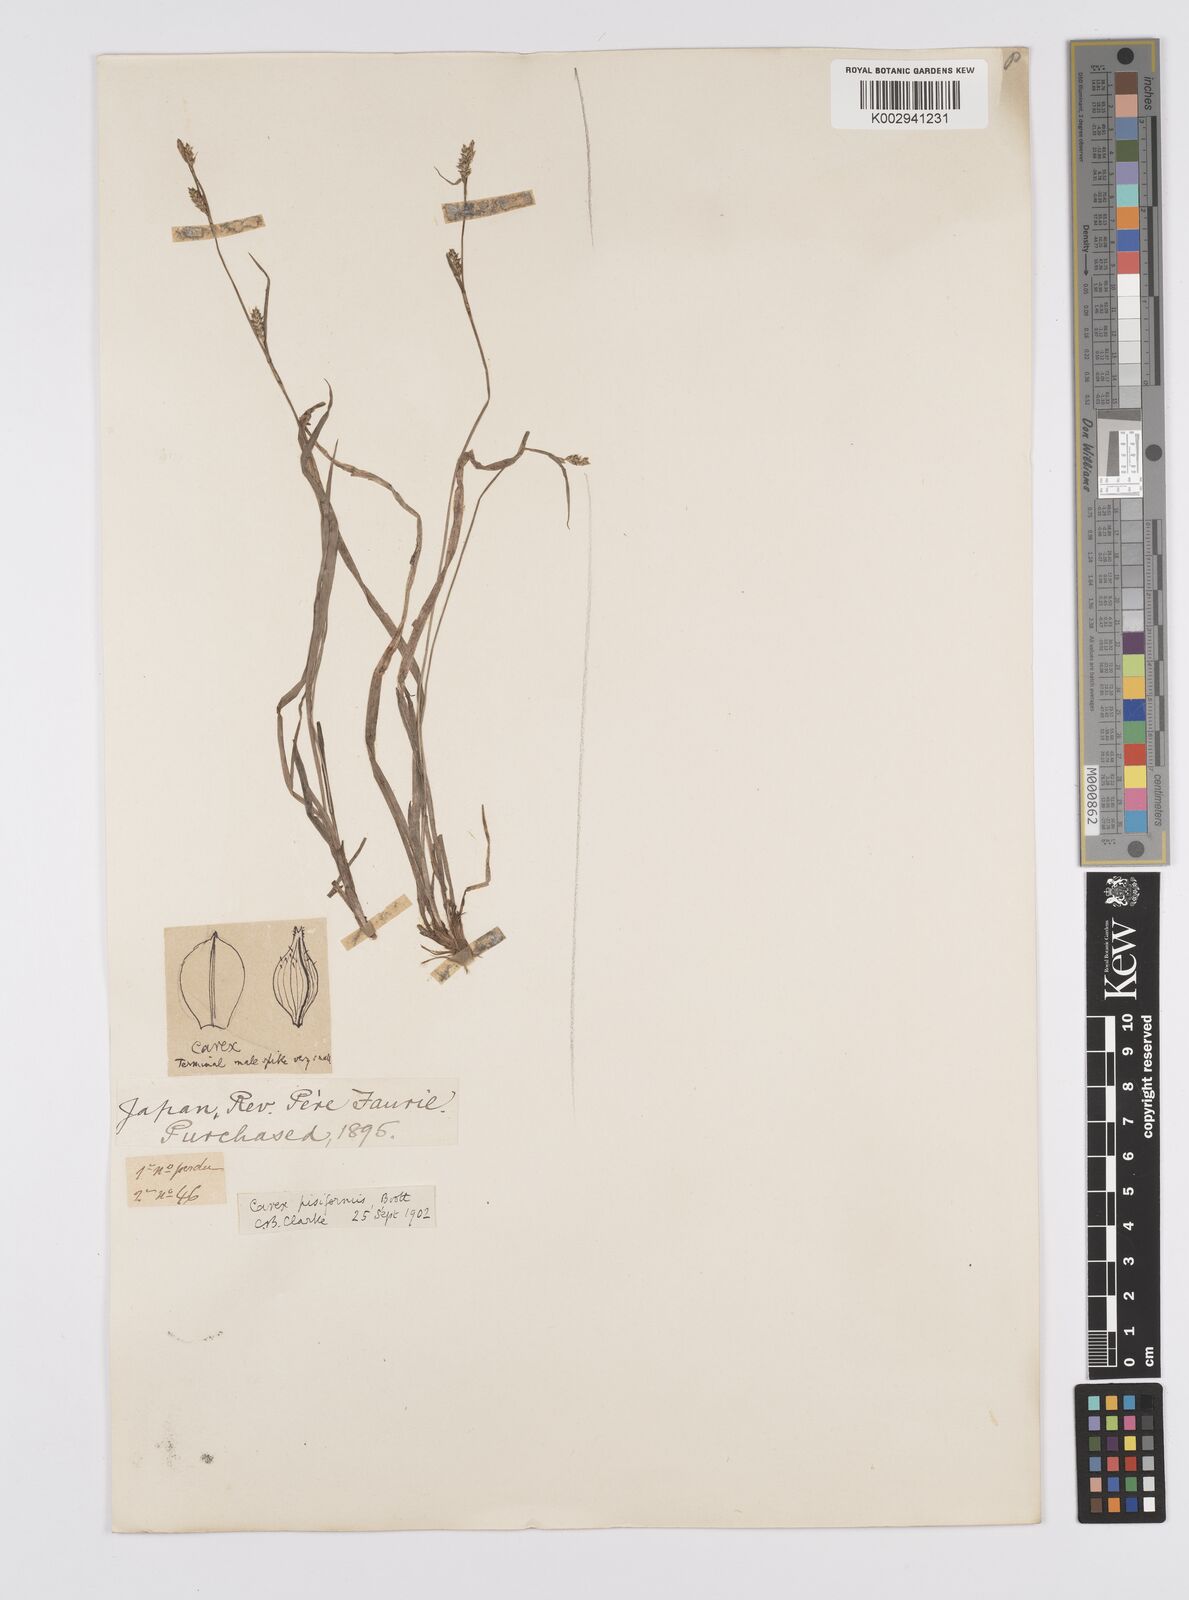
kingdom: Plantae
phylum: Tracheophyta
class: Liliopsida
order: Poales
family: Cyperaceae
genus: Carex
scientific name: Carex pisiformis
